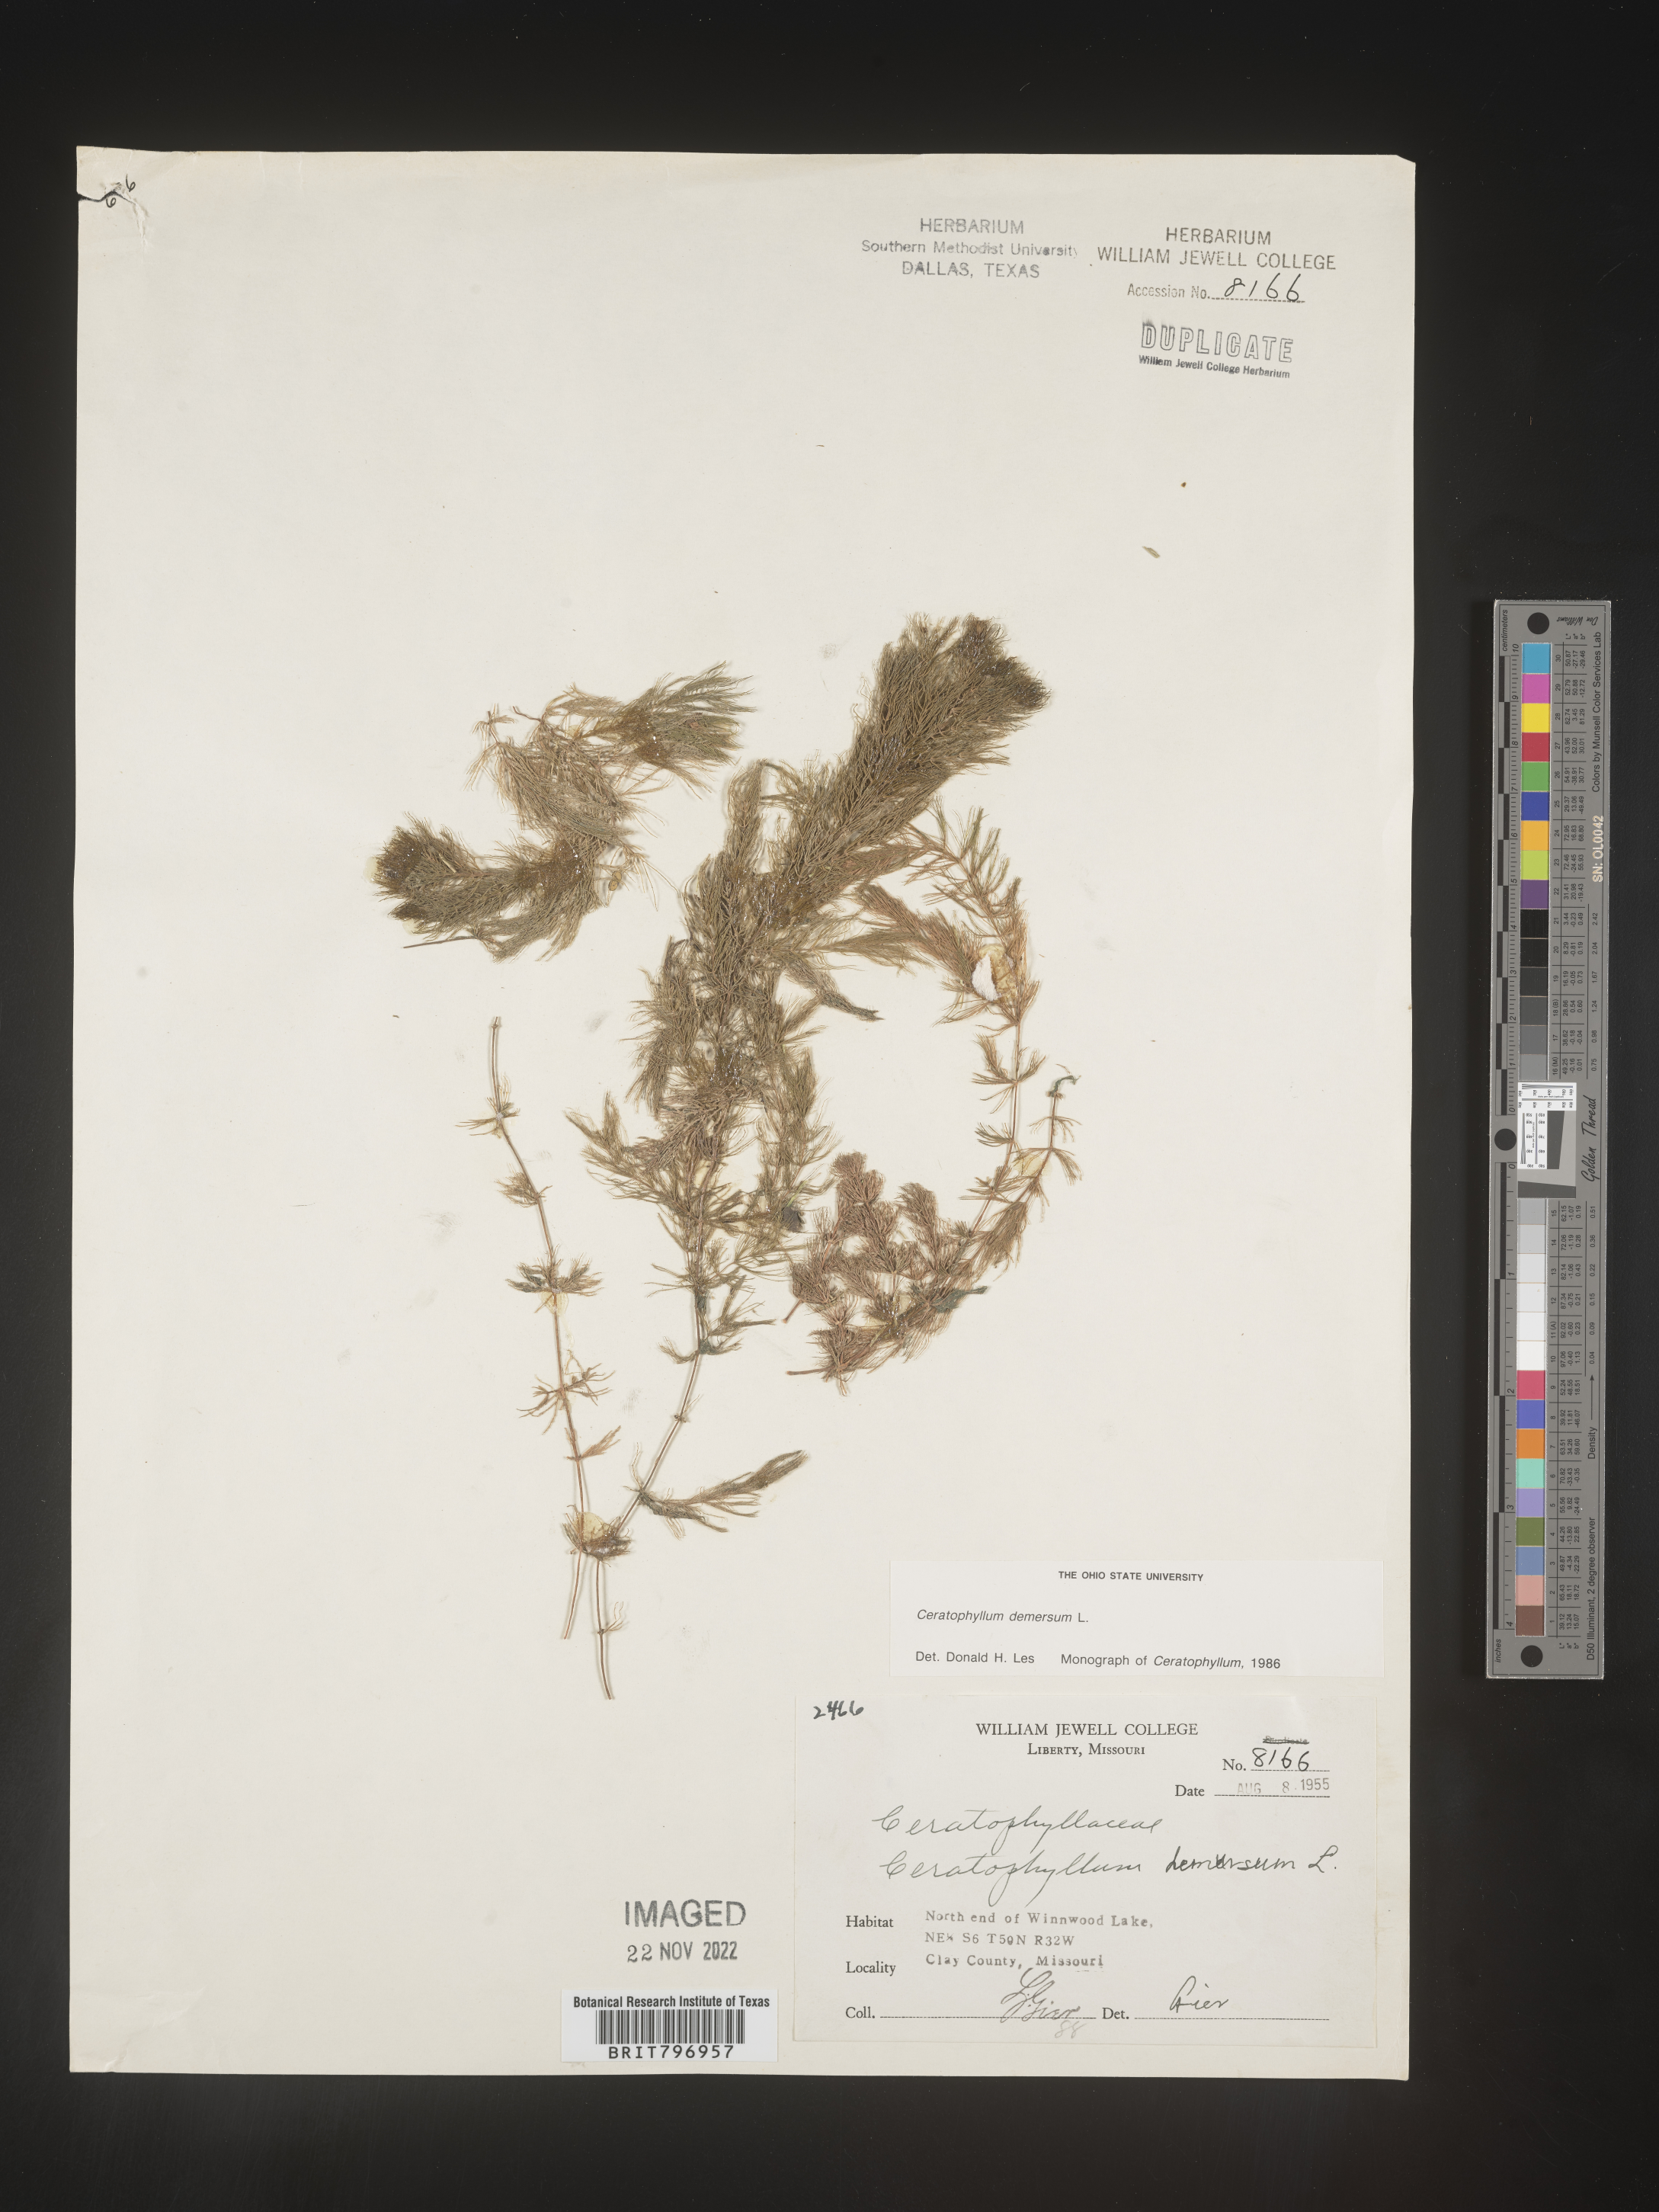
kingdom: Plantae
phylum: Tracheophyta
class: Magnoliopsida
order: Ceratophyllales
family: Ceratophyllaceae
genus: Ceratophyllum
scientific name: Ceratophyllum demersum
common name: Rigid hornwort
